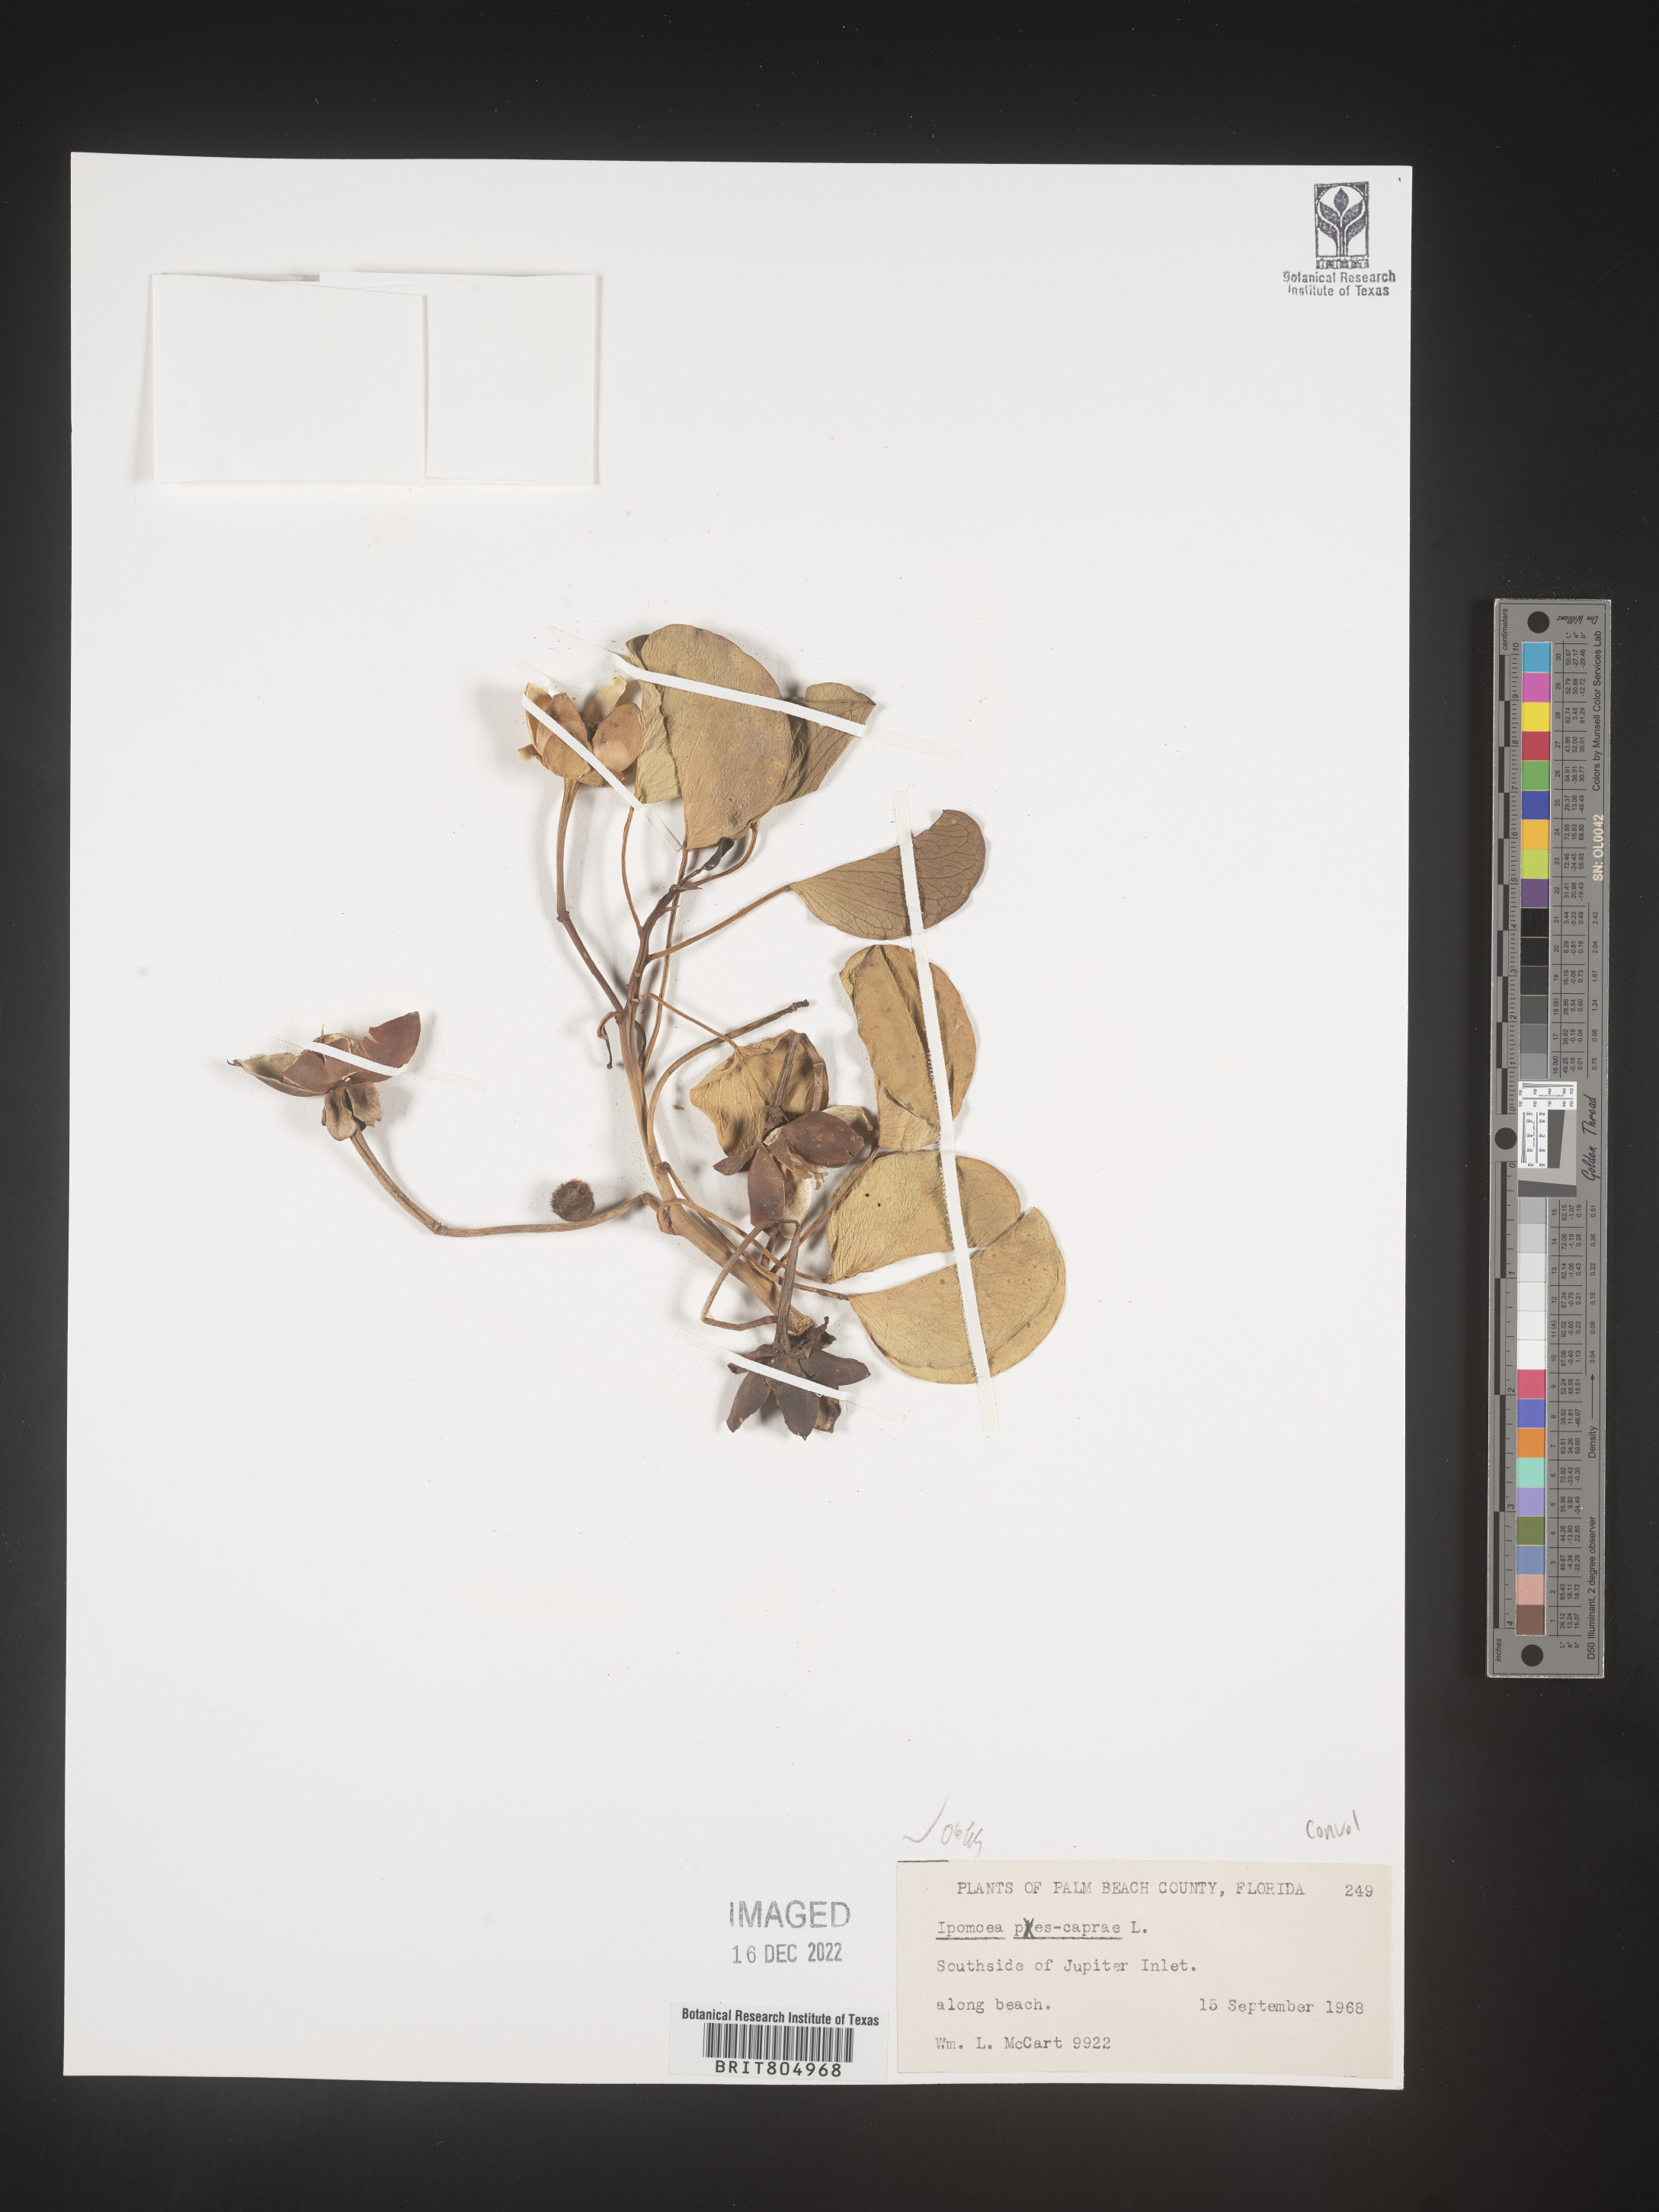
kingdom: Plantae
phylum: Tracheophyta
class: Magnoliopsida
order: Solanales
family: Convolvulaceae
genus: Ipomoea
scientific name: Ipomoea pes-caprae
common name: Beach morning glory
